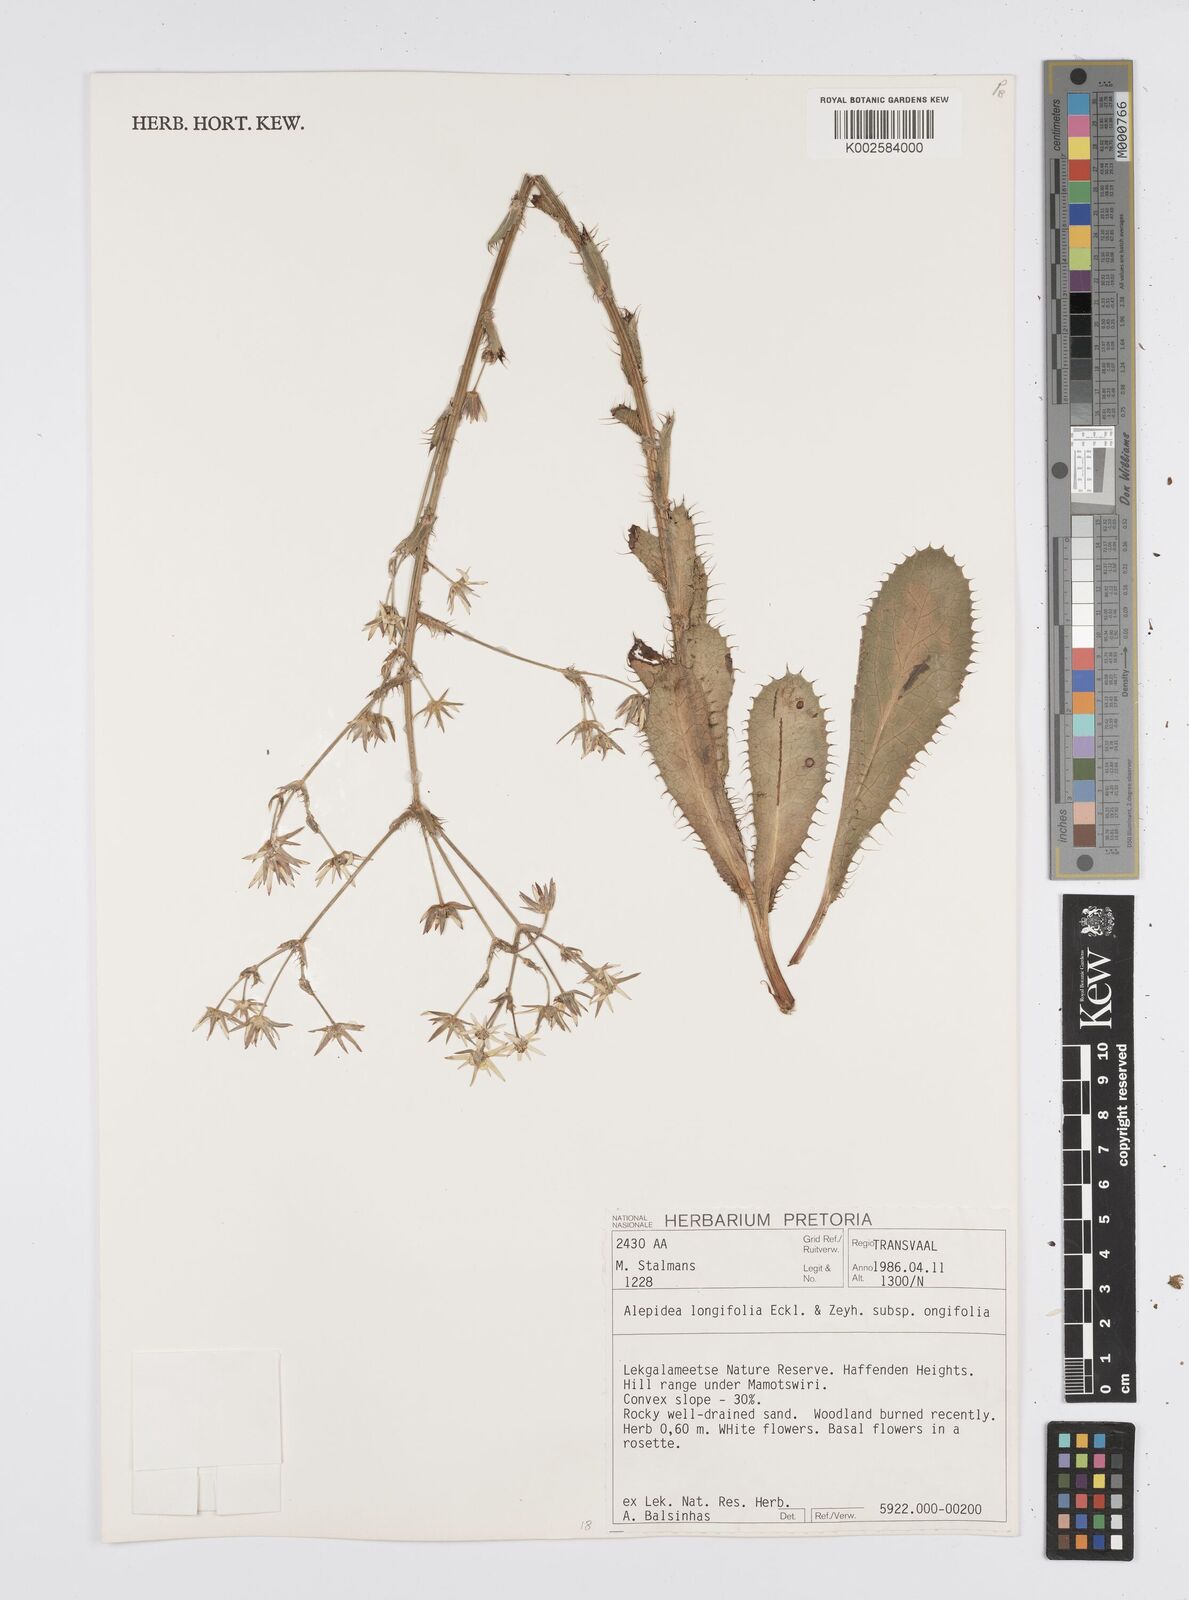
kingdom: Plantae
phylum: Tracheophyta
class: Magnoliopsida
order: Apiales
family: Apiaceae
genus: Alepidea
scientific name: Alepidea
